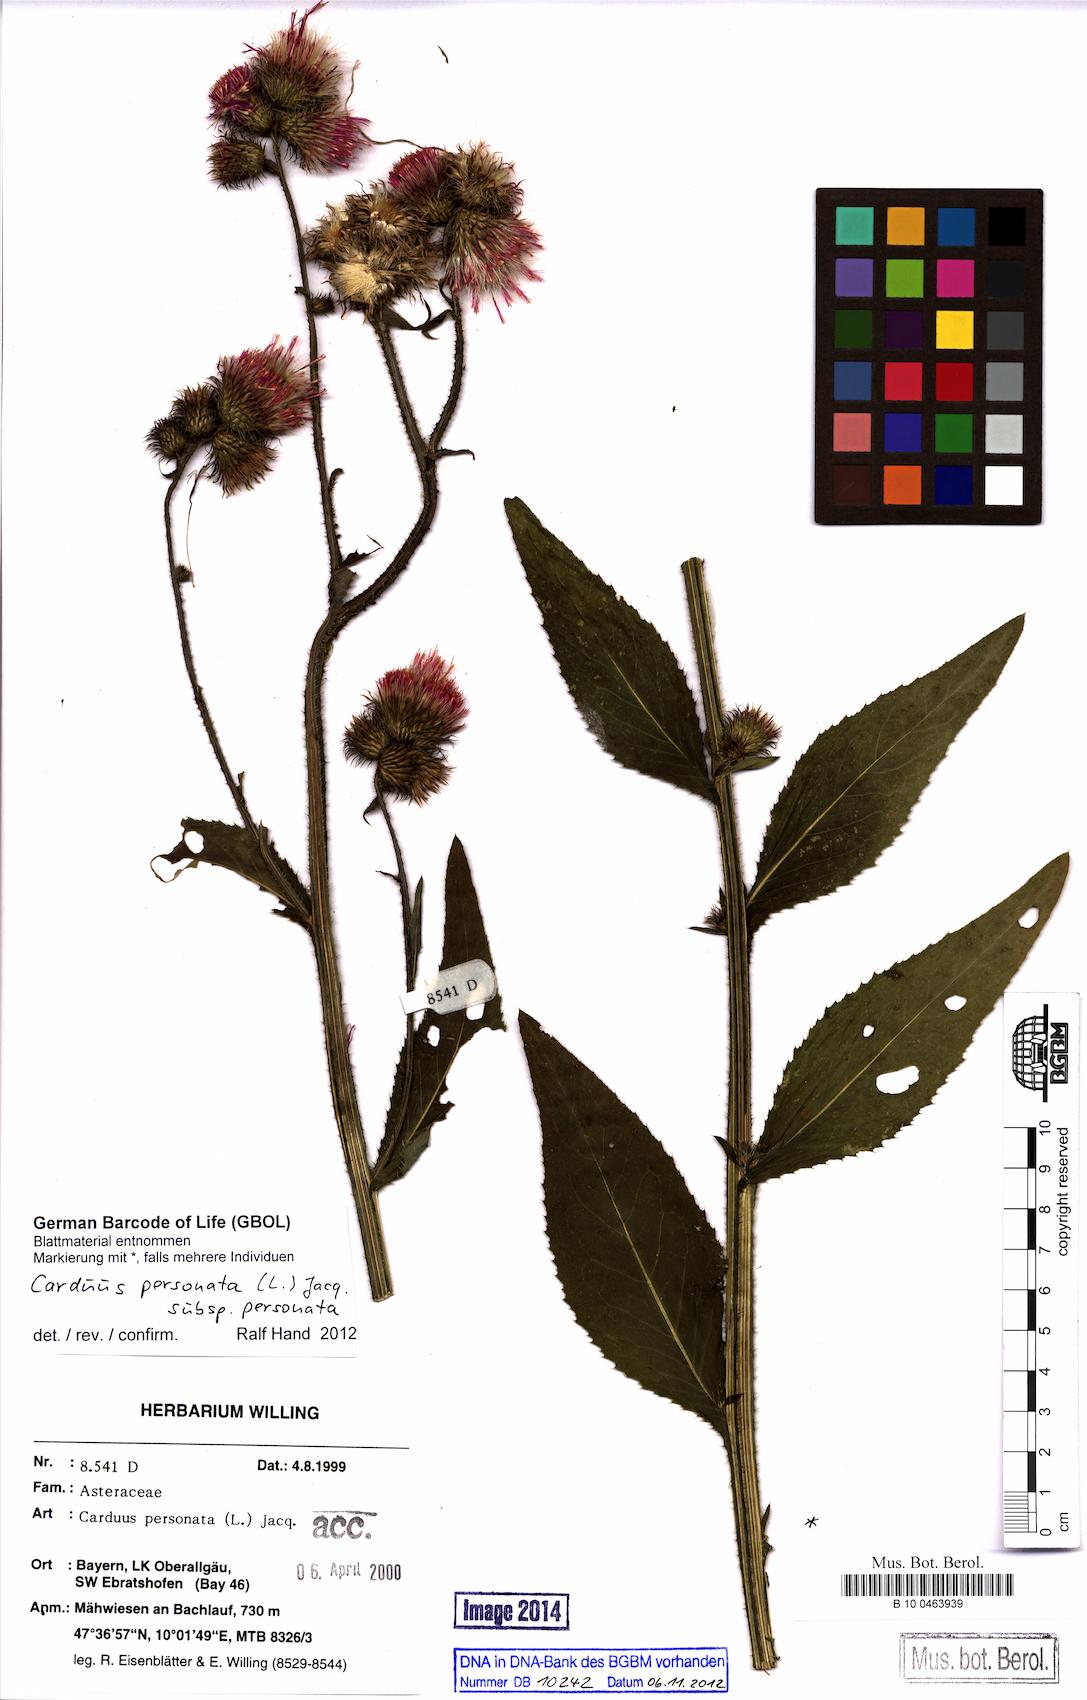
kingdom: Plantae
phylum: Tracheophyta
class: Magnoliopsida
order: Asterales
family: Asteraceae
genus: Carduus
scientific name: Carduus personata
